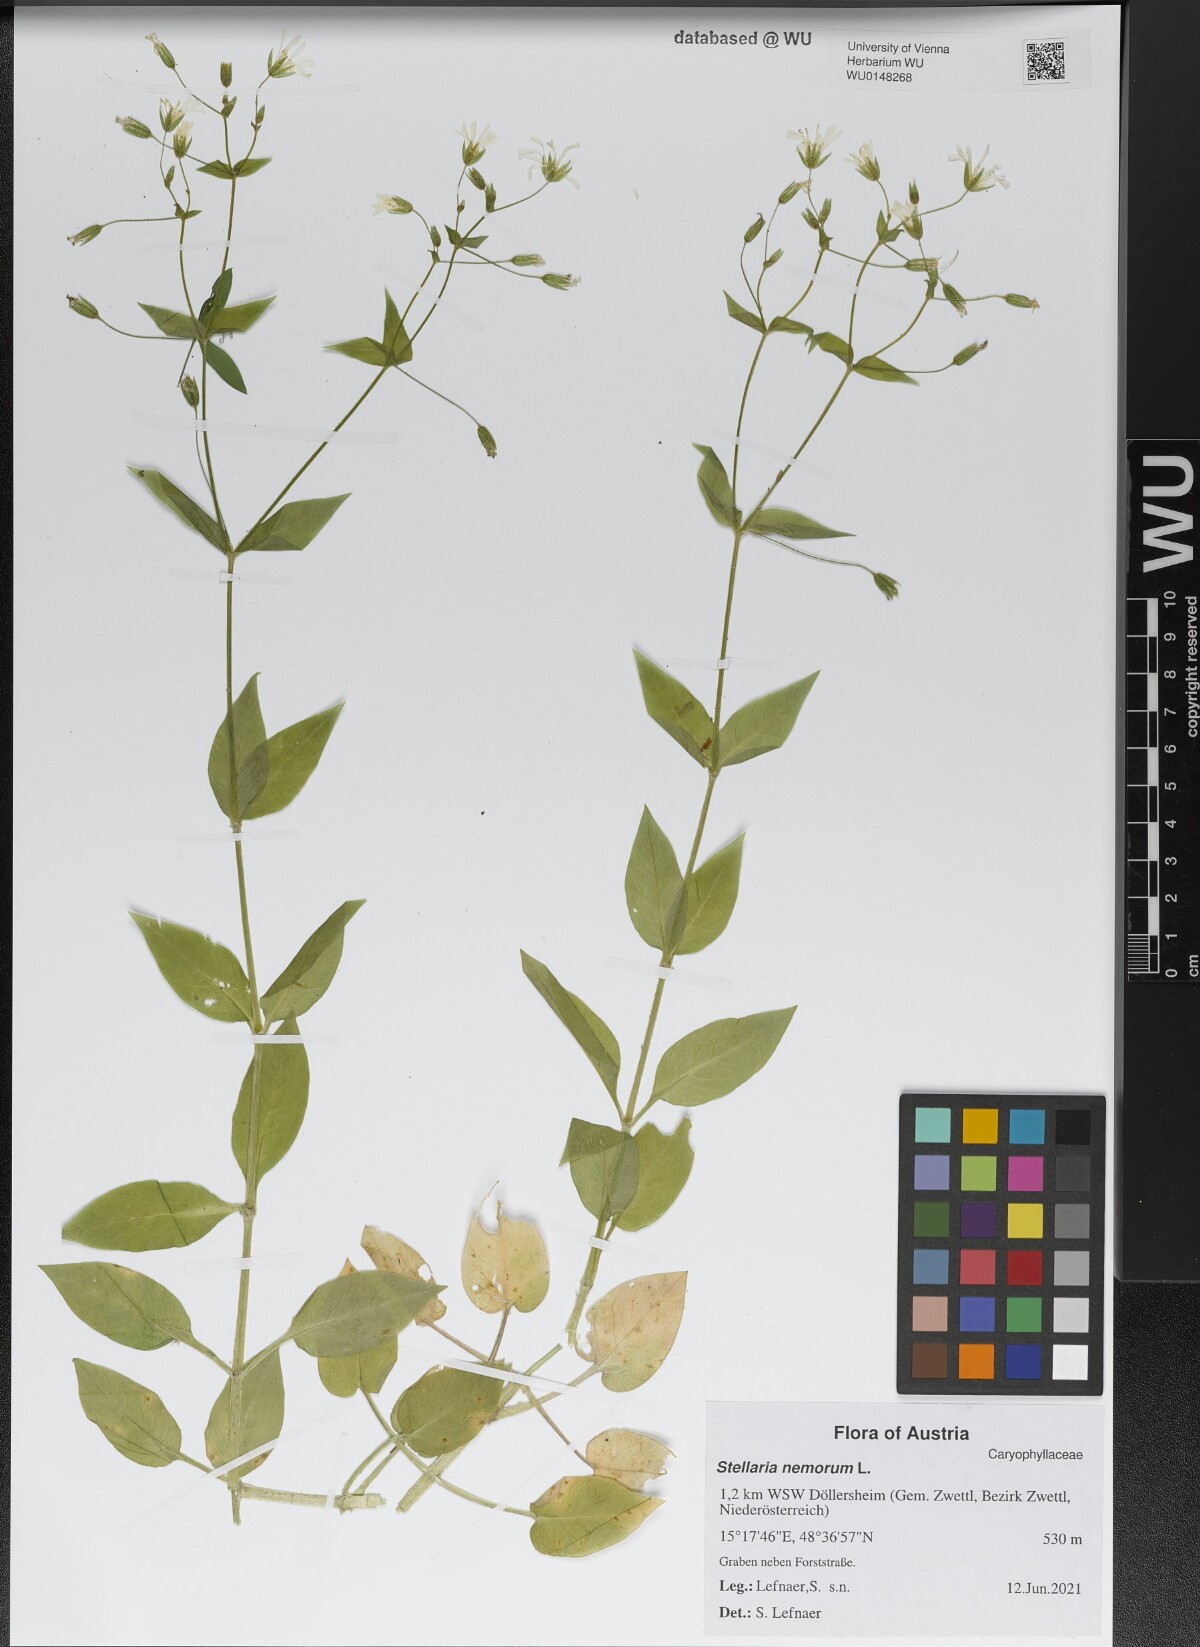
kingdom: Plantae
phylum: Tracheophyta
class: Magnoliopsida
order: Caryophyllales
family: Caryophyllaceae
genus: Stellaria
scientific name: Stellaria nemorum
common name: Wood stitchwort
